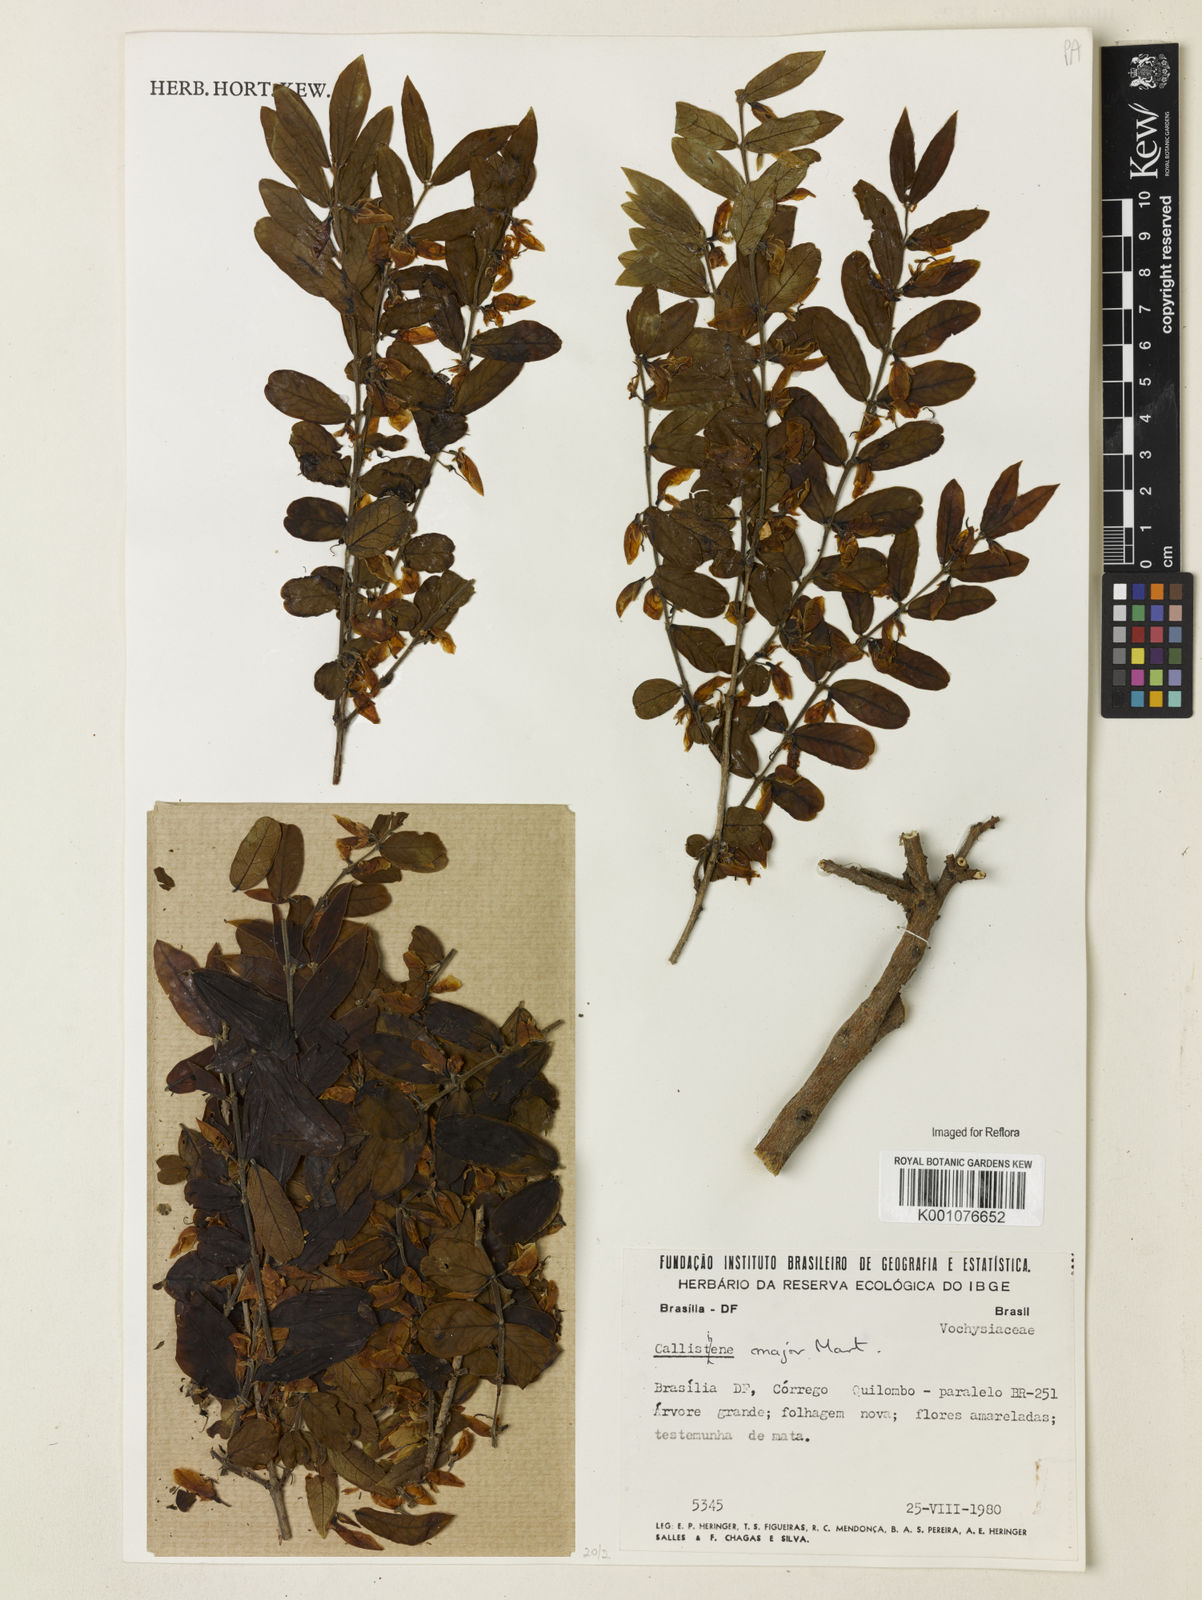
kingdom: Plantae
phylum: Tracheophyta
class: Magnoliopsida
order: Myrtales
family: Vochysiaceae
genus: Callisthene
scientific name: Callisthene major
